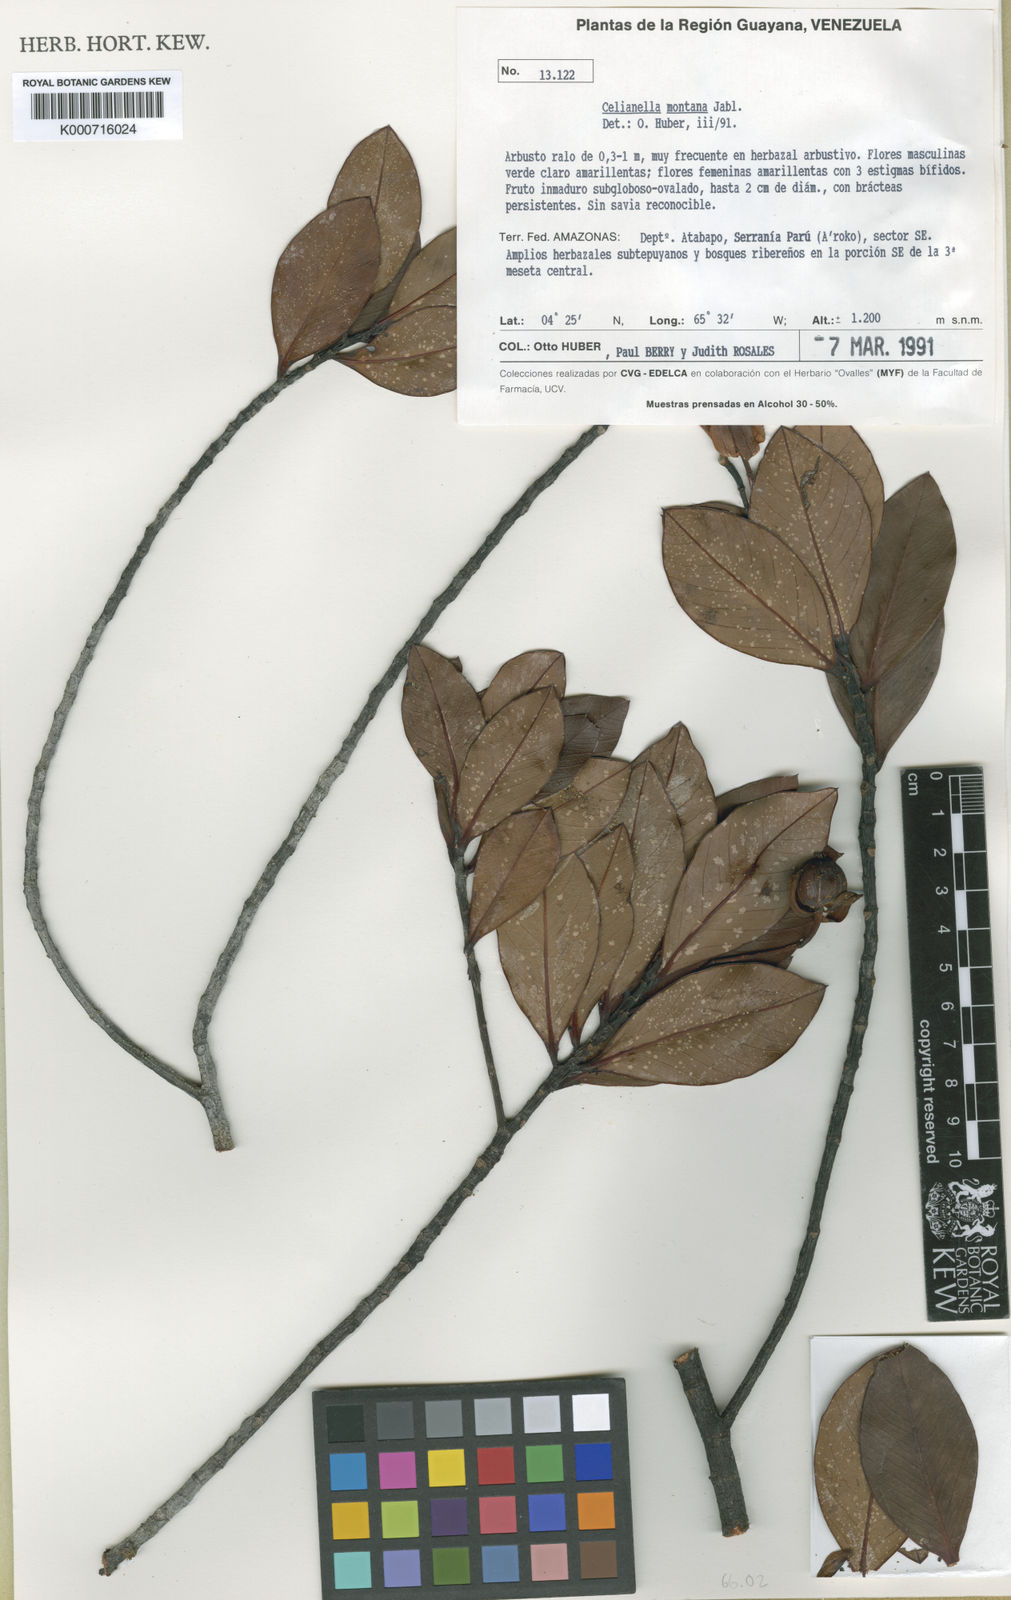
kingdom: Plantae
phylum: Tracheophyta
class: Magnoliopsida
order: Malpighiales
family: Phyllanthaceae
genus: Celianella
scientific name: Celianella montana
